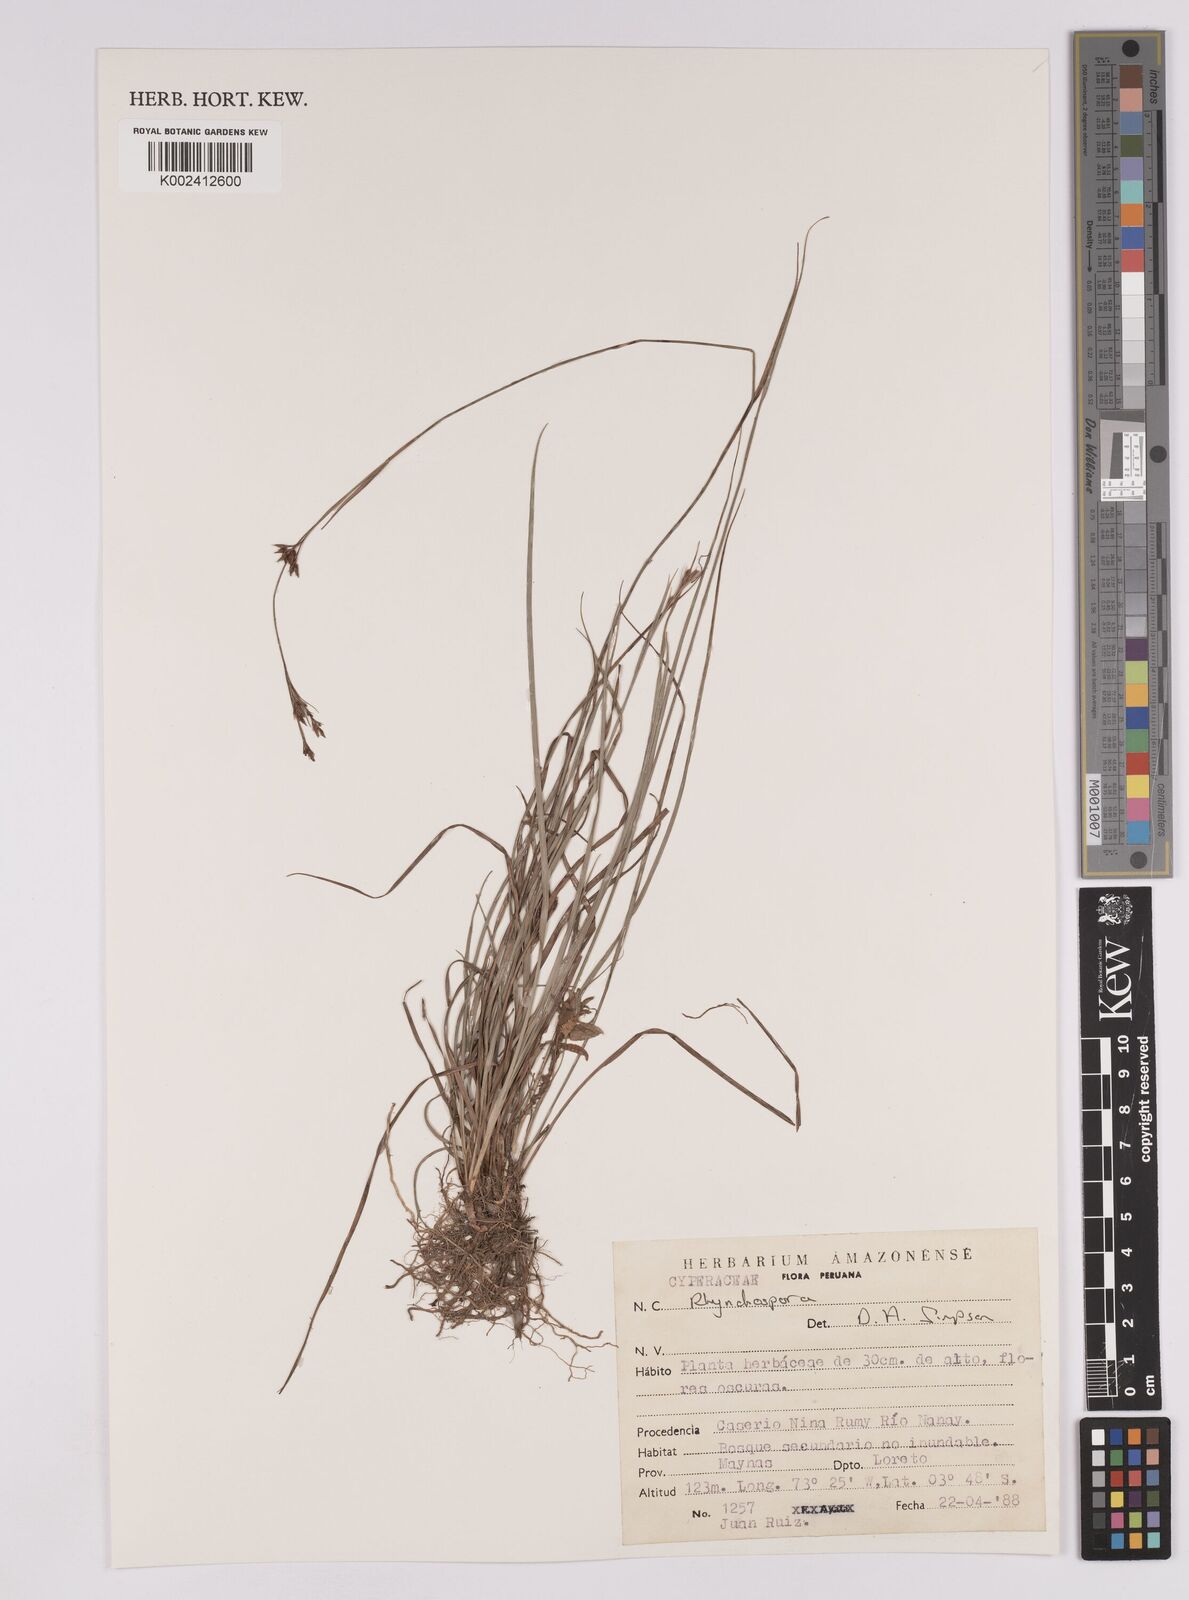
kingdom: Plantae
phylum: Tracheophyta
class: Liliopsida
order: Poales
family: Cyperaceae
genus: Rhynchospora
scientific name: Rhynchospora
